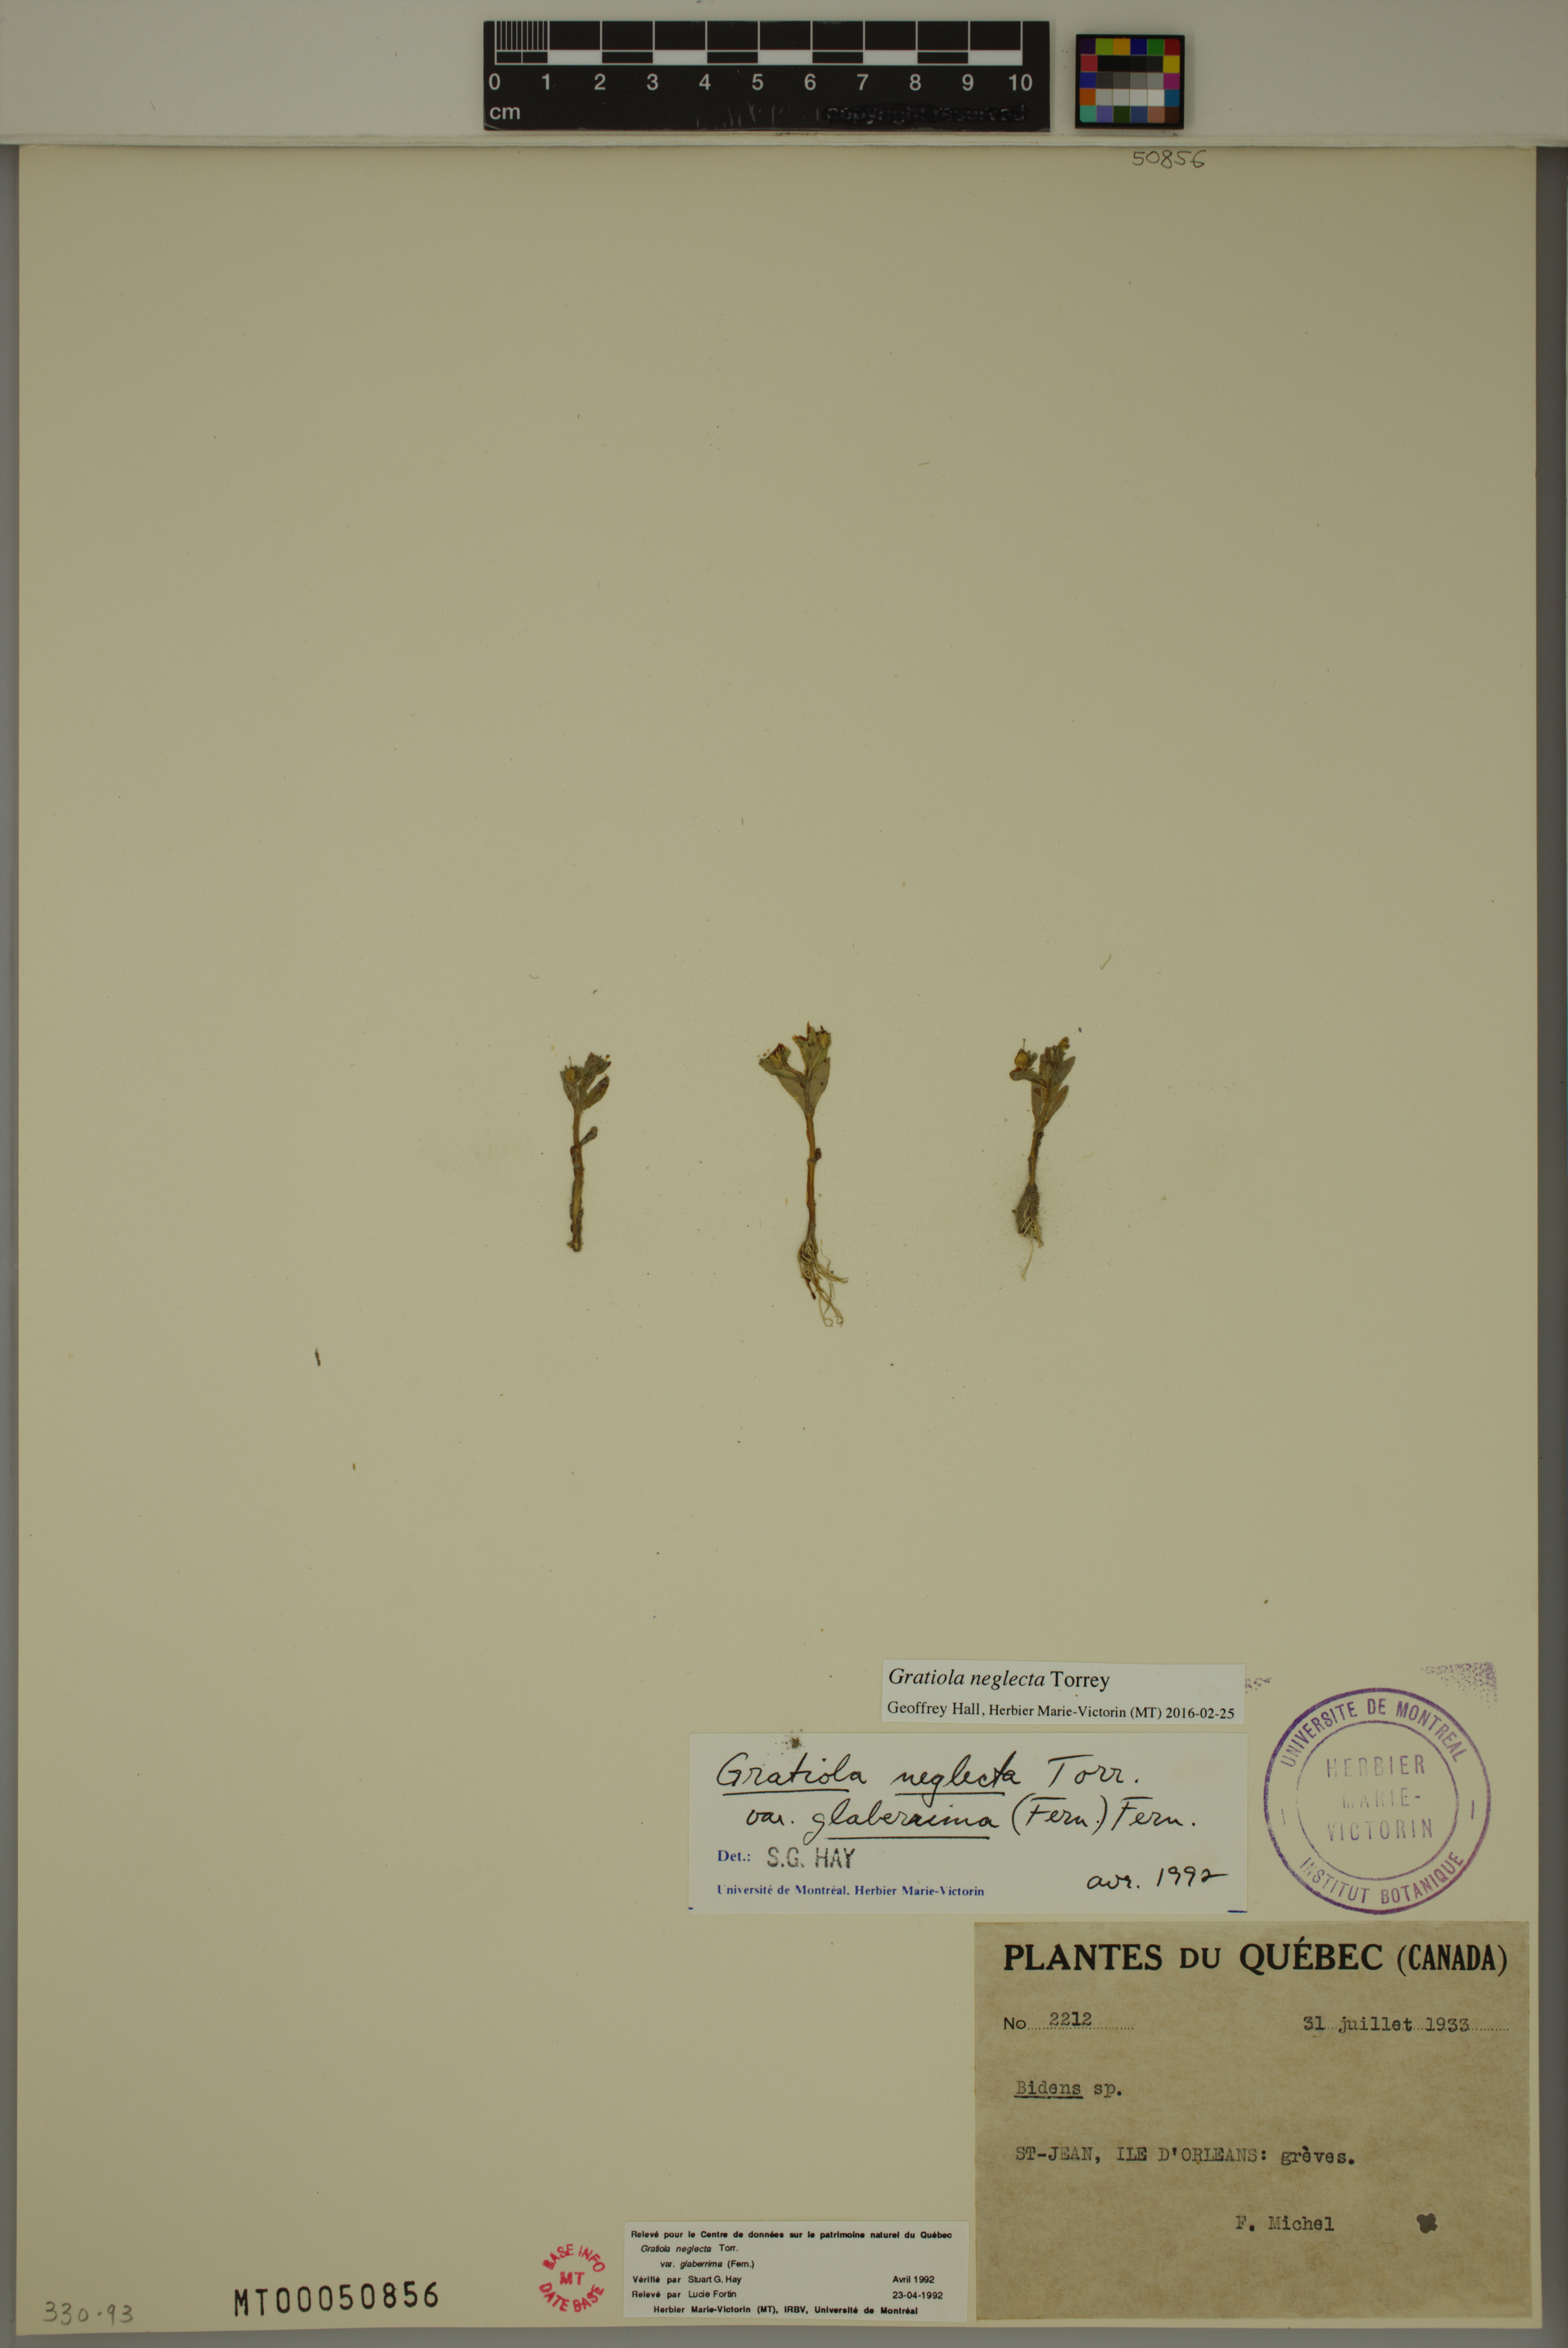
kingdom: Plantae
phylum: Tracheophyta
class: Magnoliopsida
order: Lamiales
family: Plantaginaceae
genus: Gratiola
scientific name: Gratiola neglecta
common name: American hedge-hyssop
